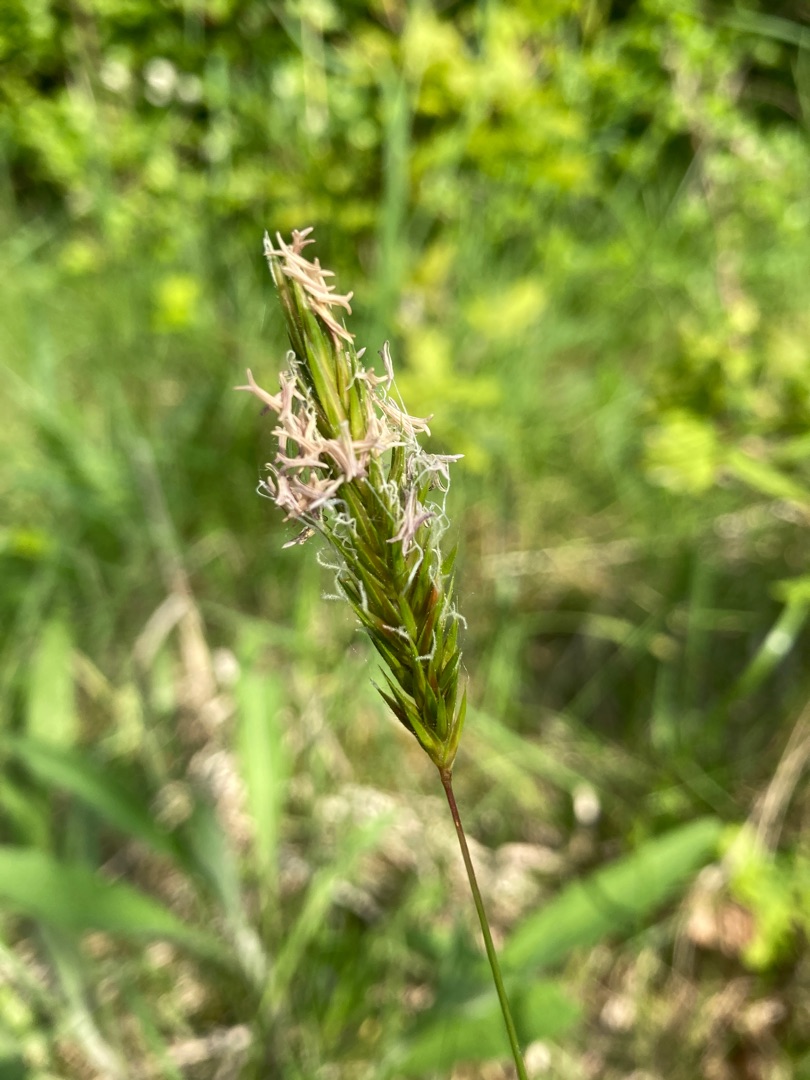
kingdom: Plantae
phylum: Tracheophyta
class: Liliopsida
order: Poales
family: Poaceae
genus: Anthoxanthum
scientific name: Anthoxanthum odoratum
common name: Vellugtende gulaks
